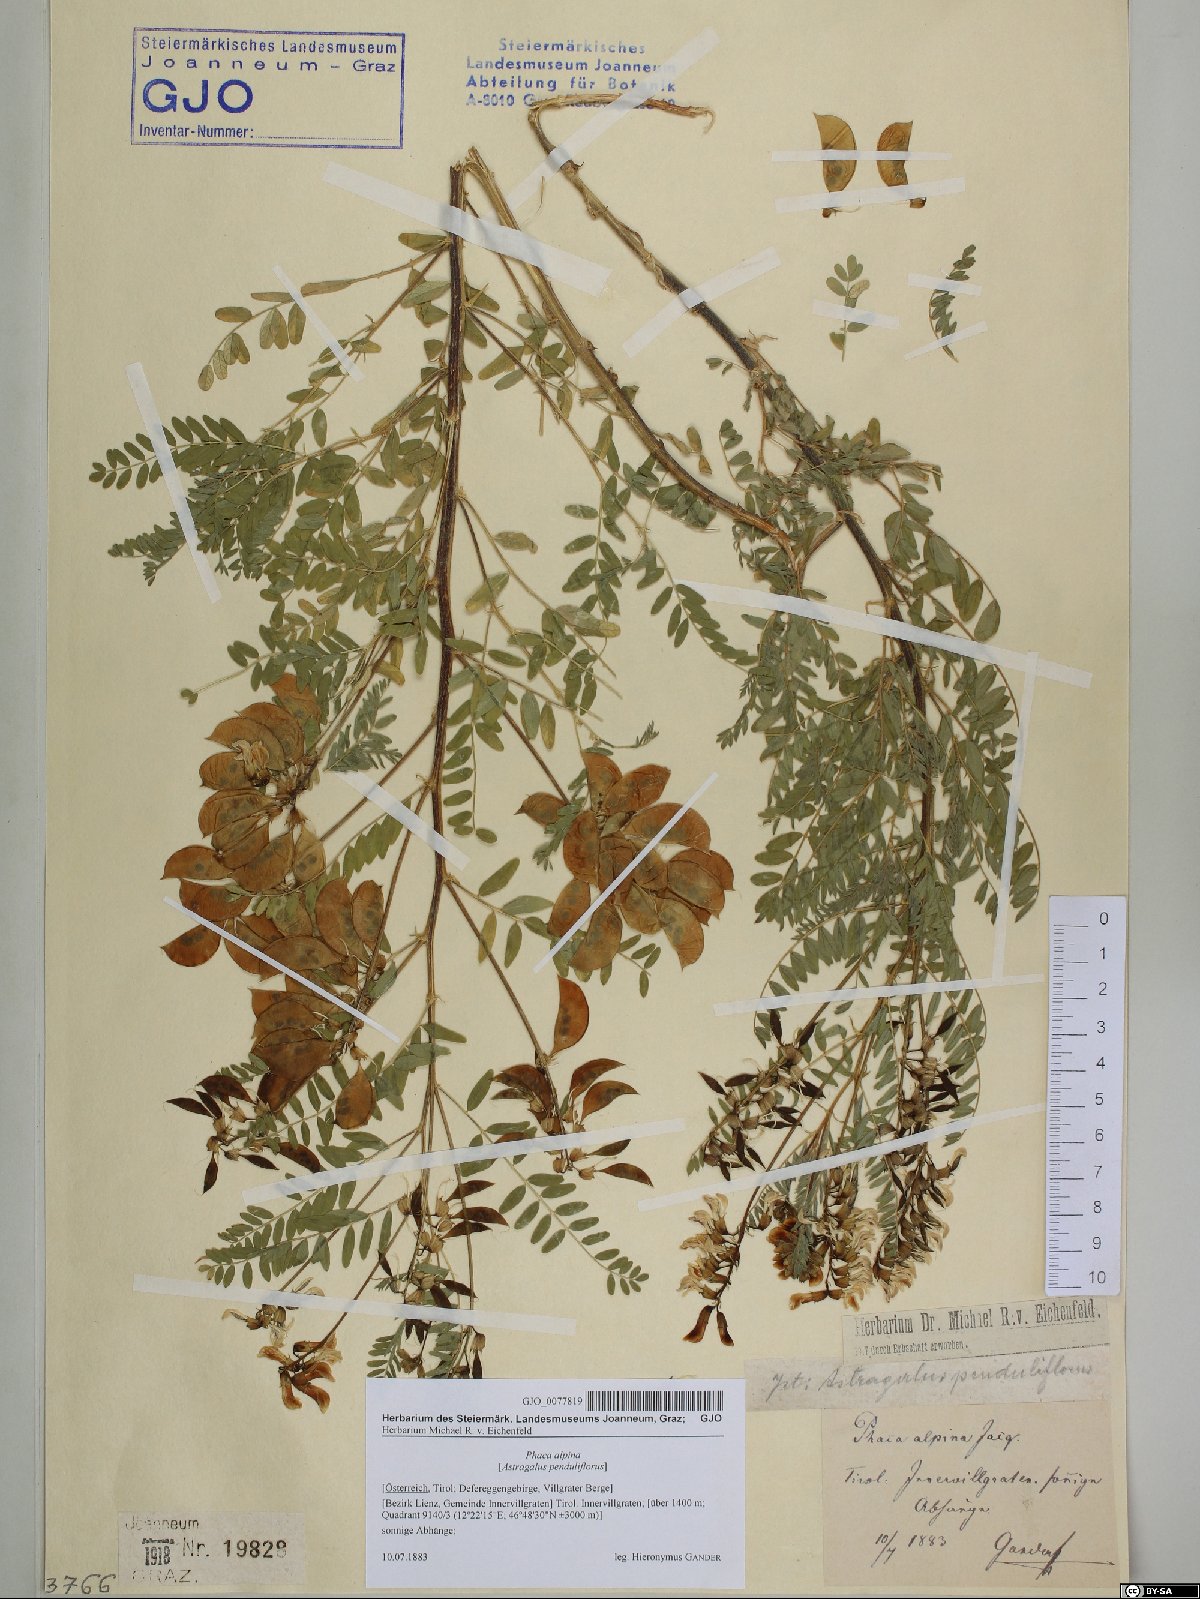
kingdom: Plantae
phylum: Tracheophyta
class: Magnoliopsida
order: Fabales
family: Fabaceae
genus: Astragalus
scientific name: Astragalus penduliflorus
